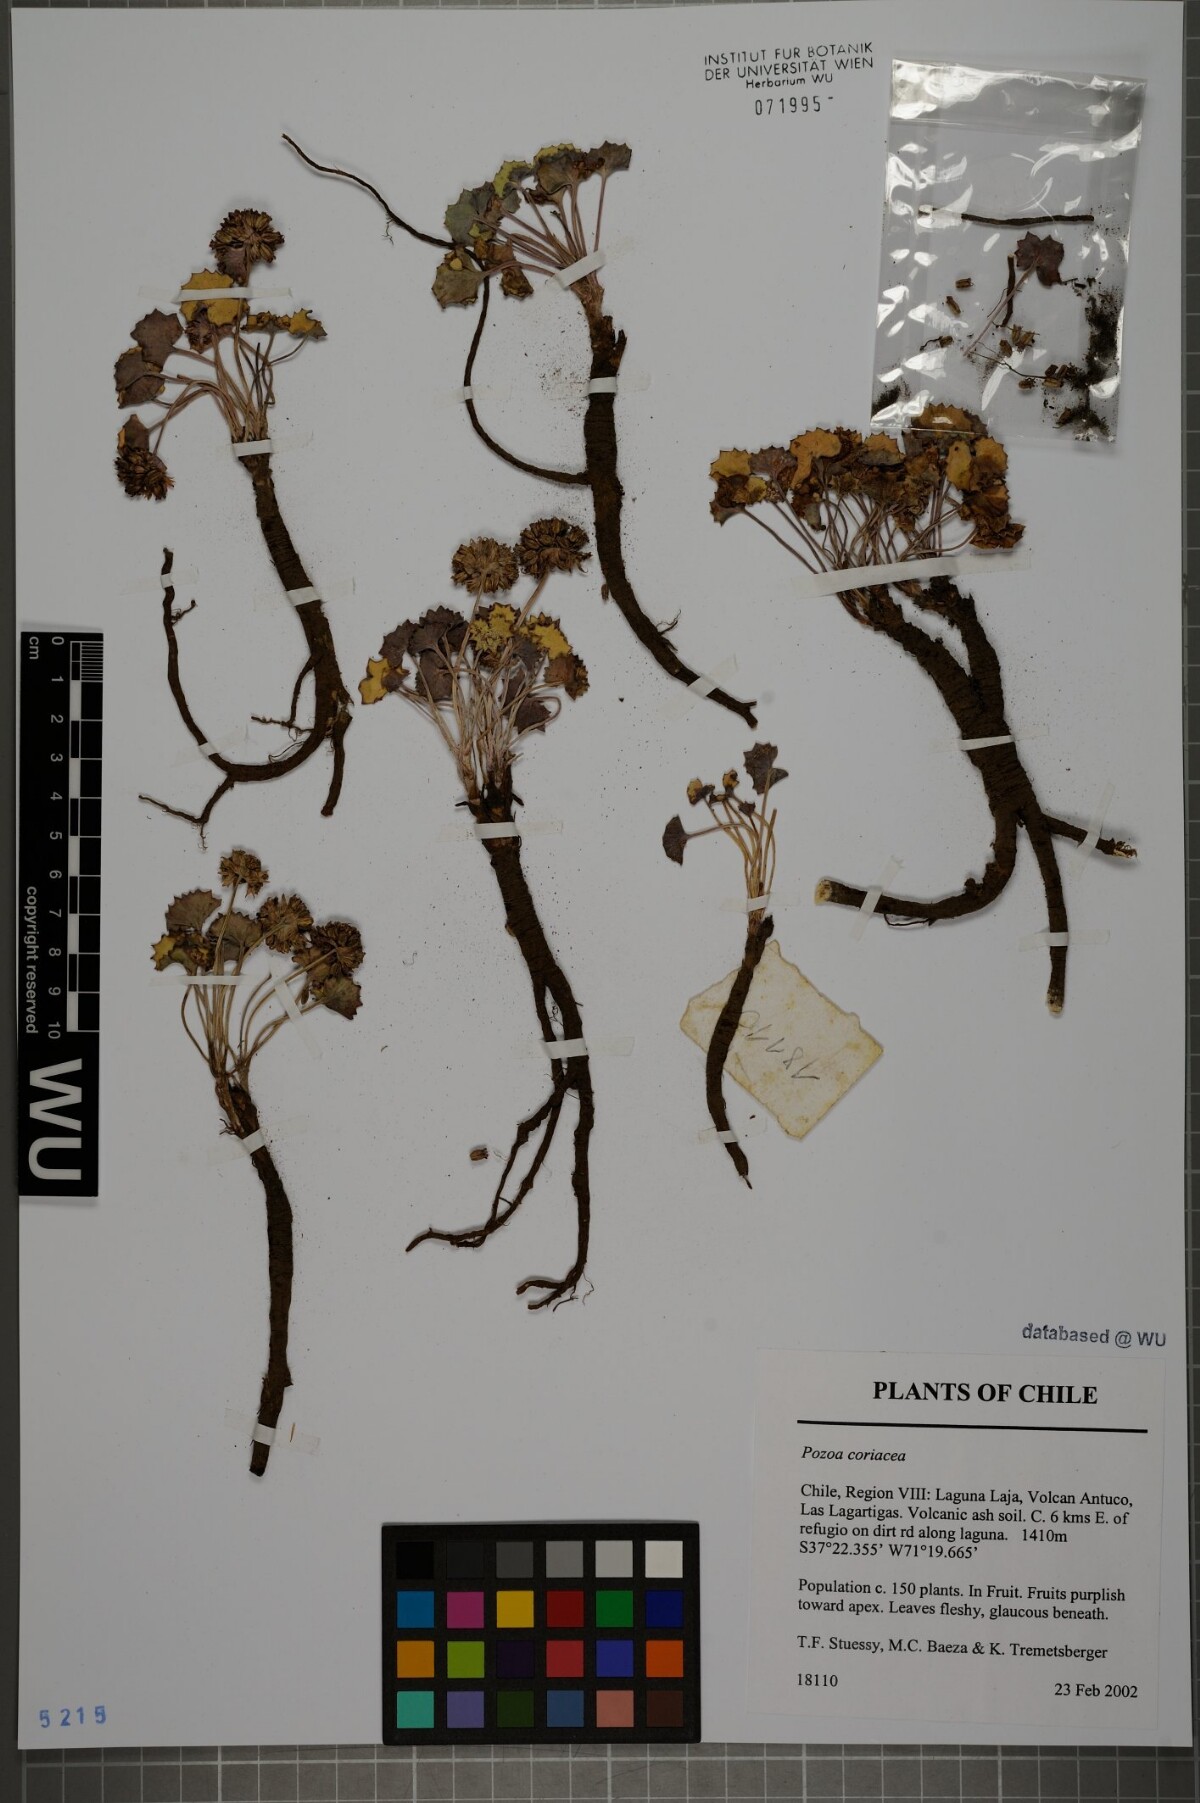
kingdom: Plantae
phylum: Tracheophyta
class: Magnoliopsida
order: Apiales
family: Apiaceae
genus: Pozoa
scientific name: Pozoa coriacea
